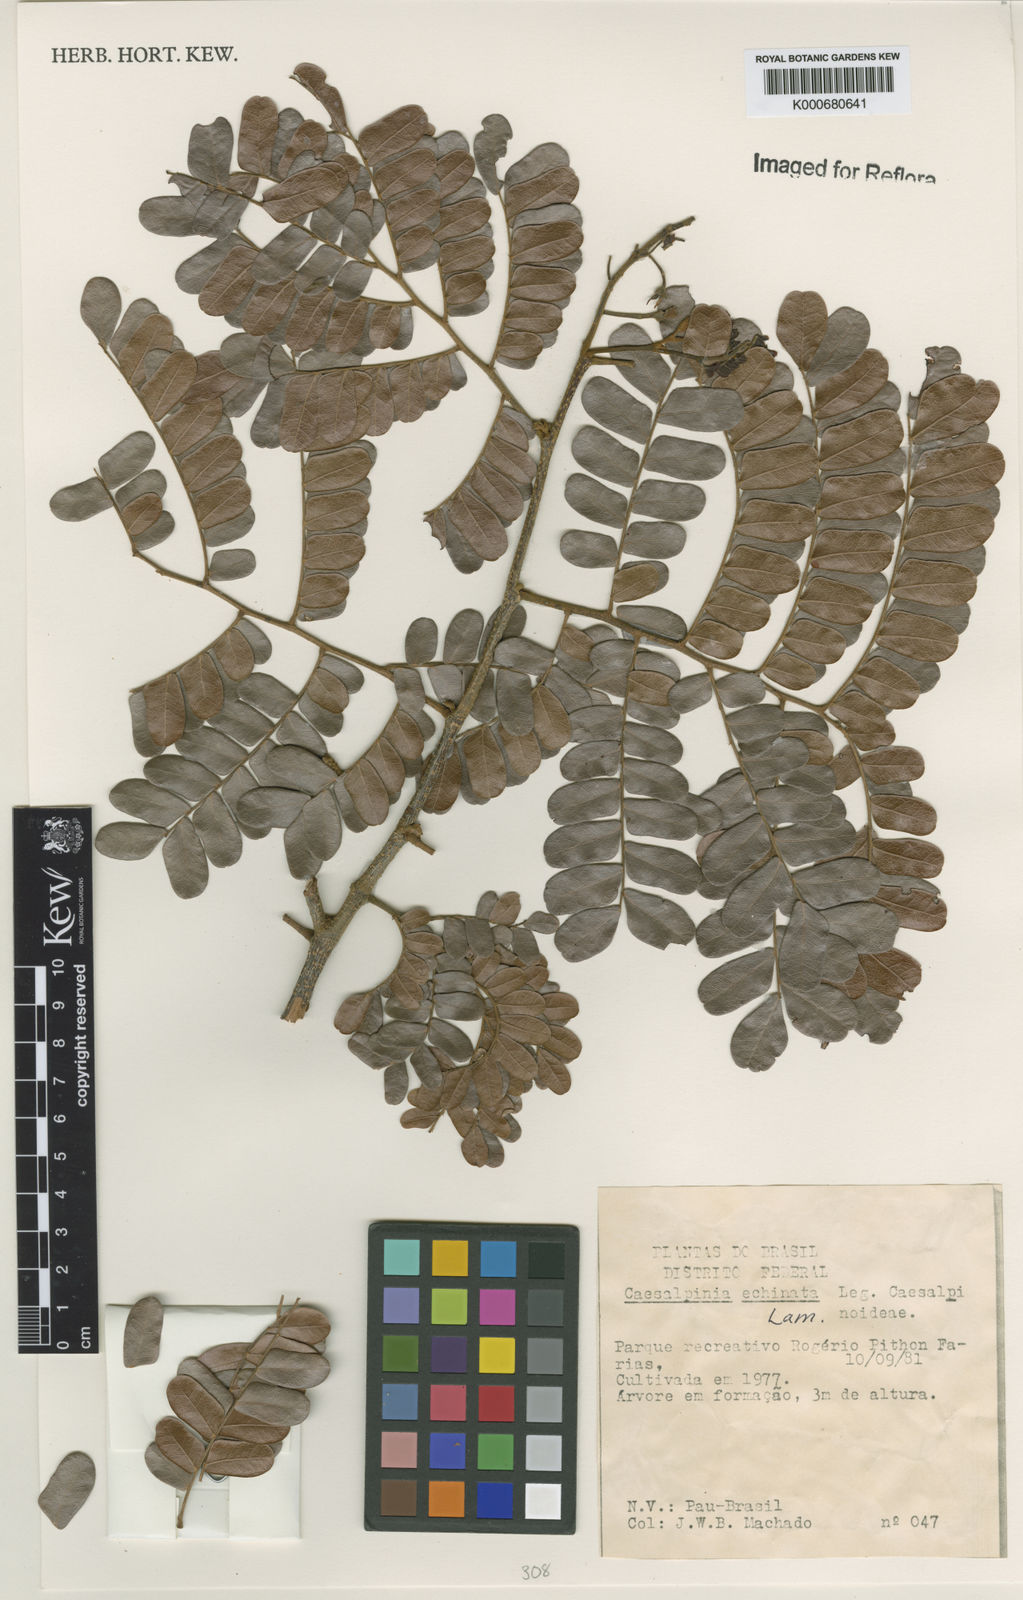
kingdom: Plantae
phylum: Tracheophyta
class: Magnoliopsida
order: Fabales
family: Fabaceae
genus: Paubrasilia
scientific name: Paubrasilia echinata
